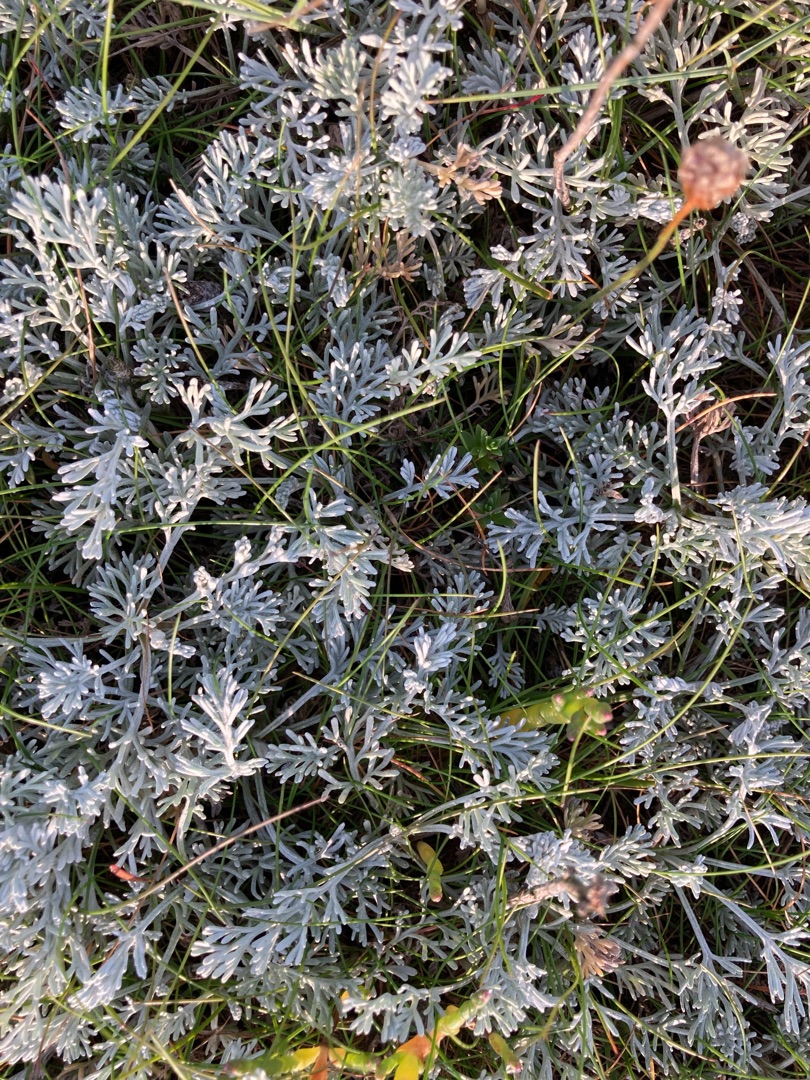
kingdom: Plantae
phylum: Tracheophyta
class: Magnoliopsida
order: Asterales
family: Asteraceae
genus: Artemisia
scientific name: Artemisia maritima
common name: Strandmalurt
